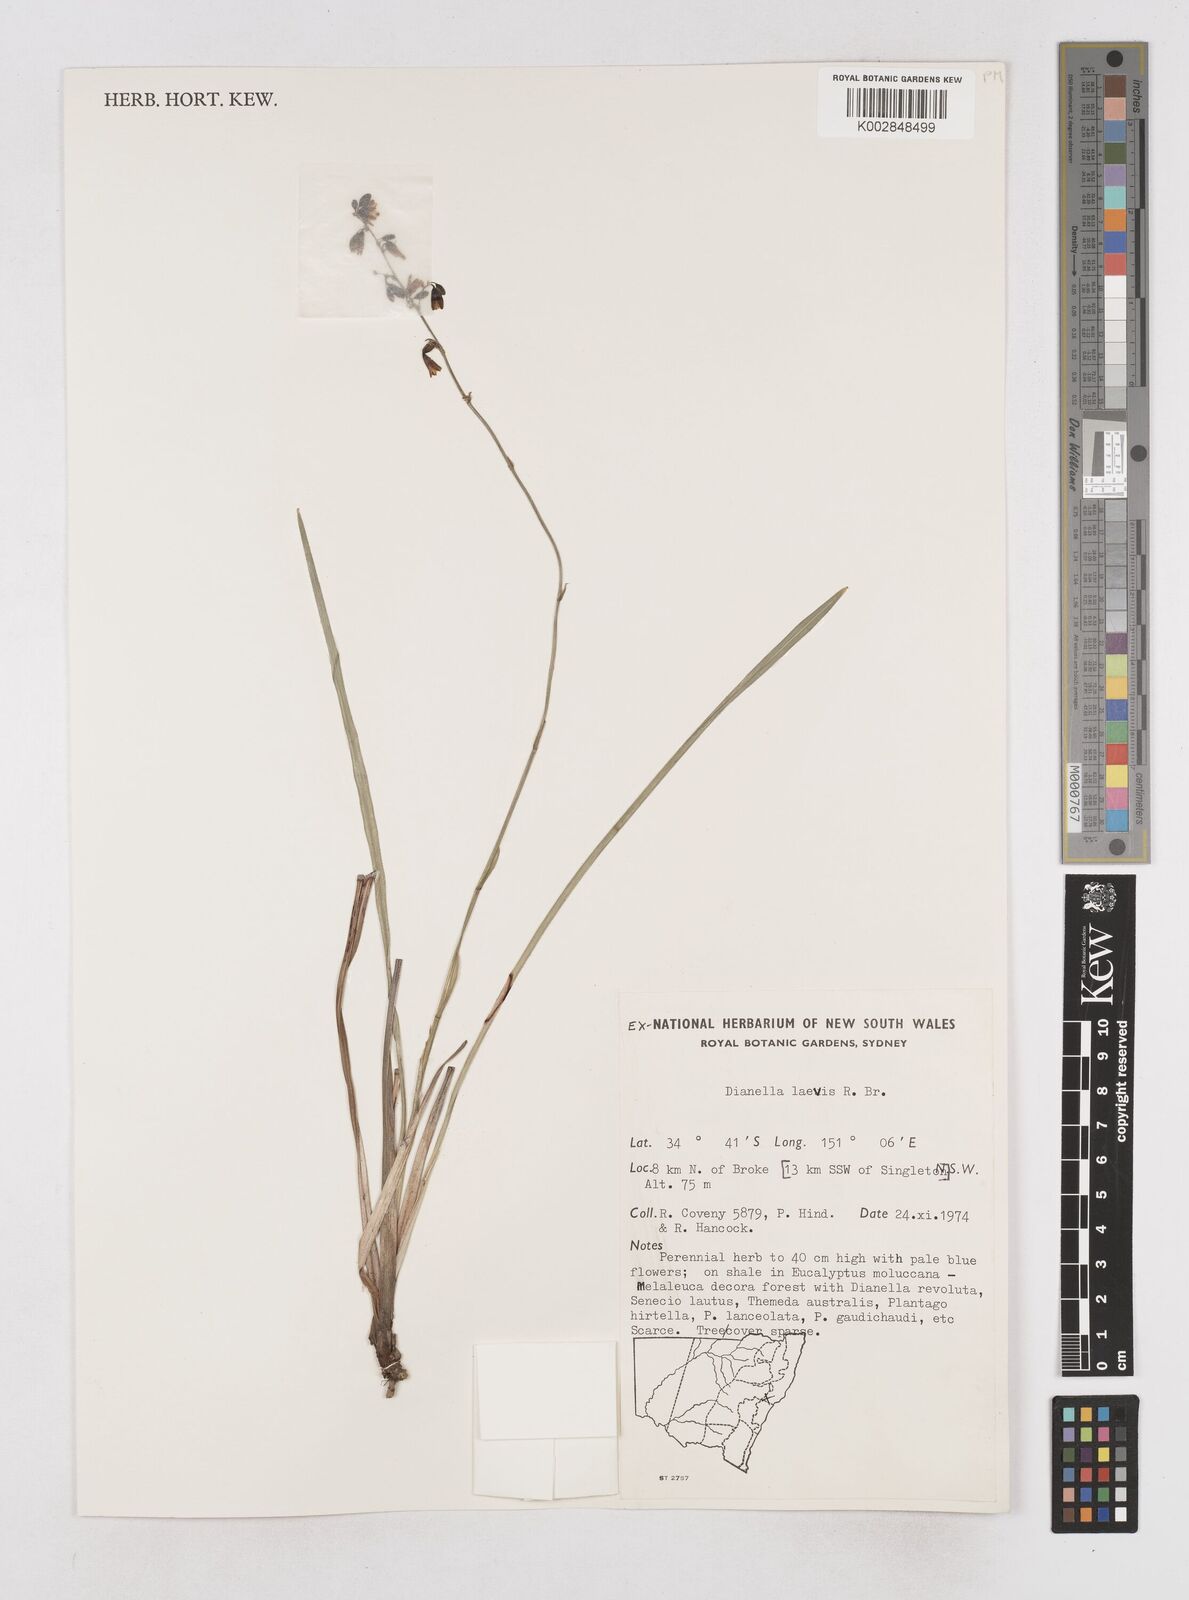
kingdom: Plantae
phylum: Tracheophyta
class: Liliopsida
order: Asparagales
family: Asphodelaceae
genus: Dianella
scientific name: Dianella longifolia
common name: Blue flax-lily
